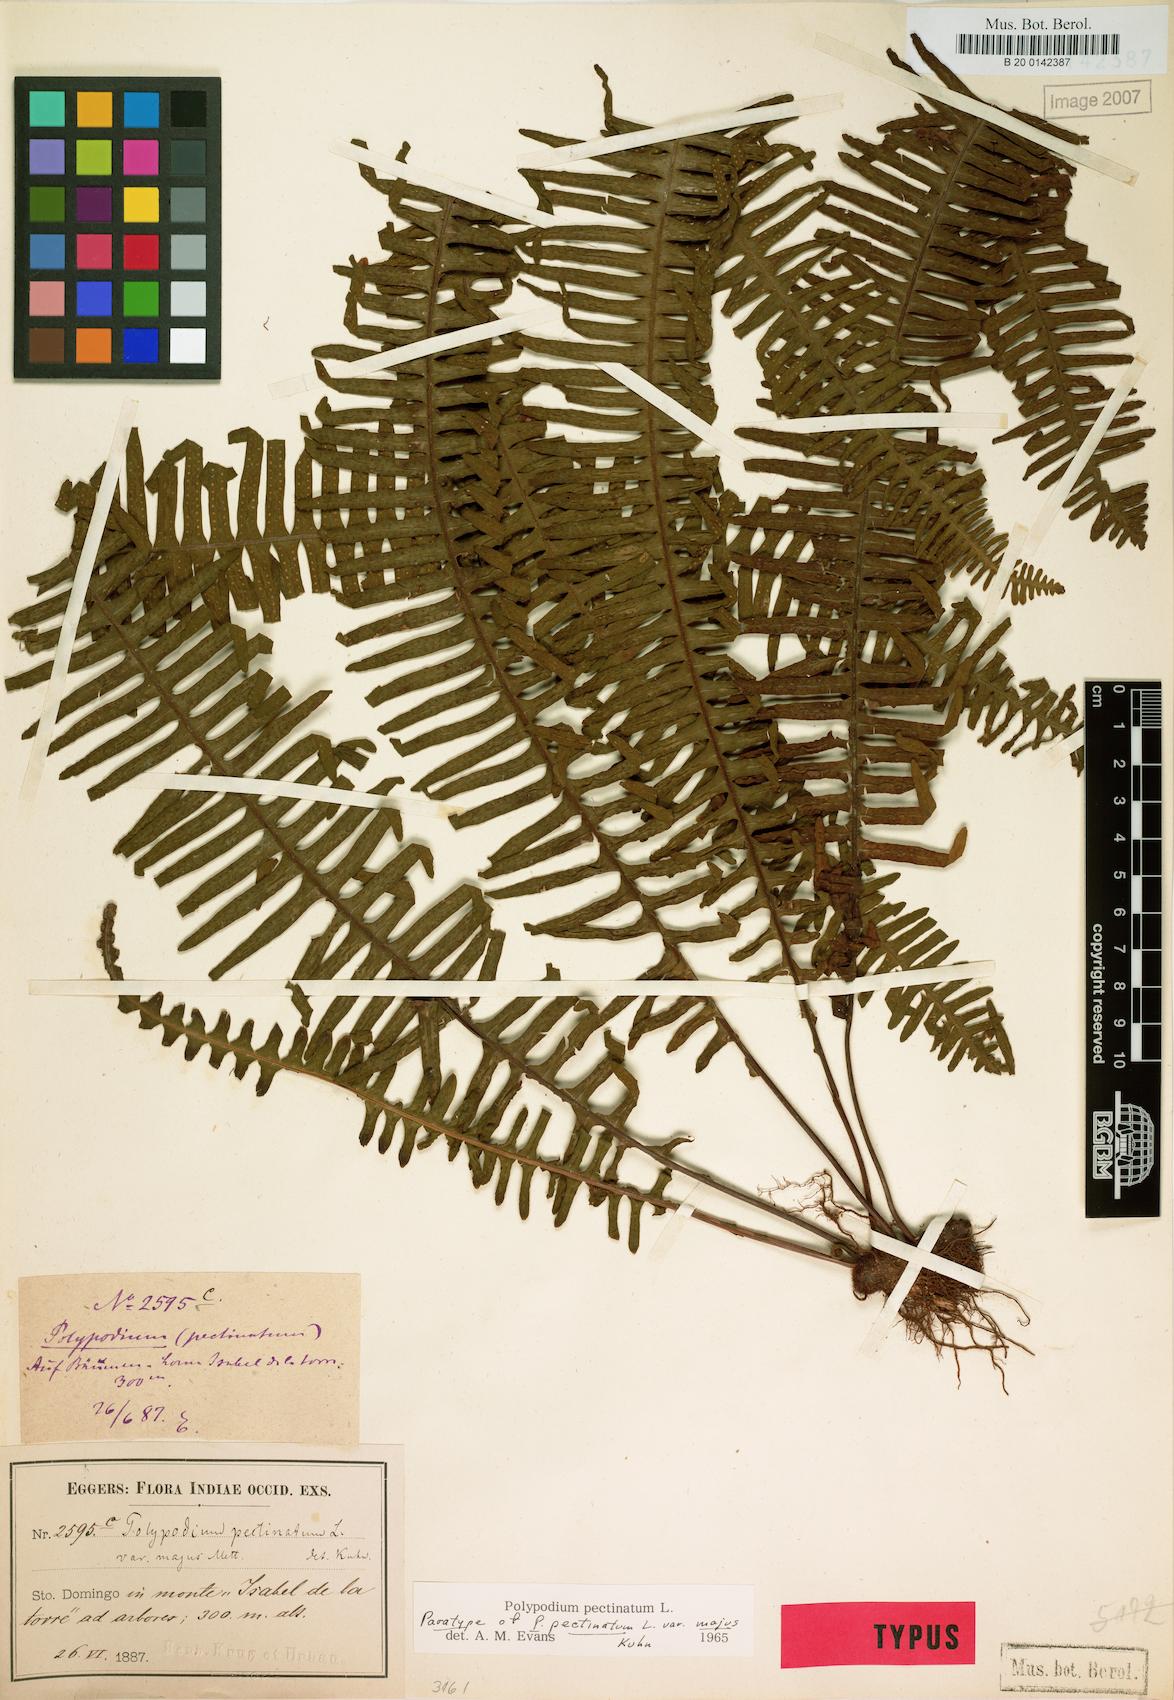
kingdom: Plantae
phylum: Tracheophyta
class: Polypodiopsida
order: Polypodiales
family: Polypodiaceae
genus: Pecluma
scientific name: Pecluma pectinata
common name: Msasa fern
